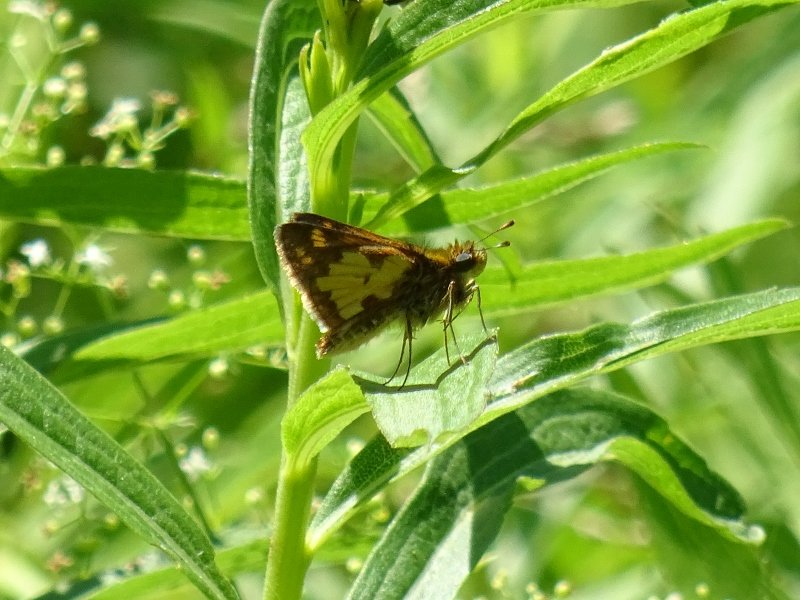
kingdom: Animalia
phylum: Arthropoda
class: Insecta
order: Lepidoptera
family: Hesperiidae
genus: Polites
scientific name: Polites
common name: Long Dash Skipper
